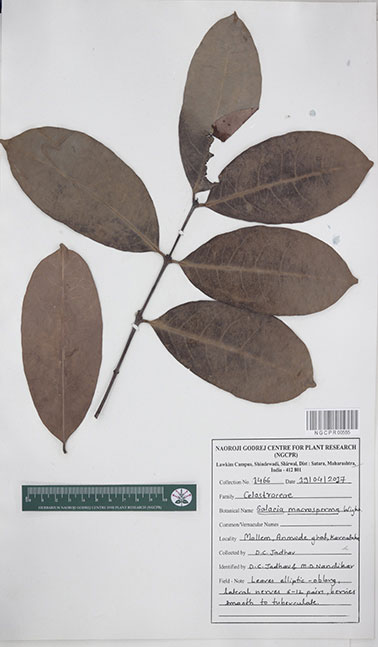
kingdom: Plantae
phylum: Tracheophyta
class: Magnoliopsida
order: Celastrales
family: Celastraceae
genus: Salacia
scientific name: Salacia macrosperma
